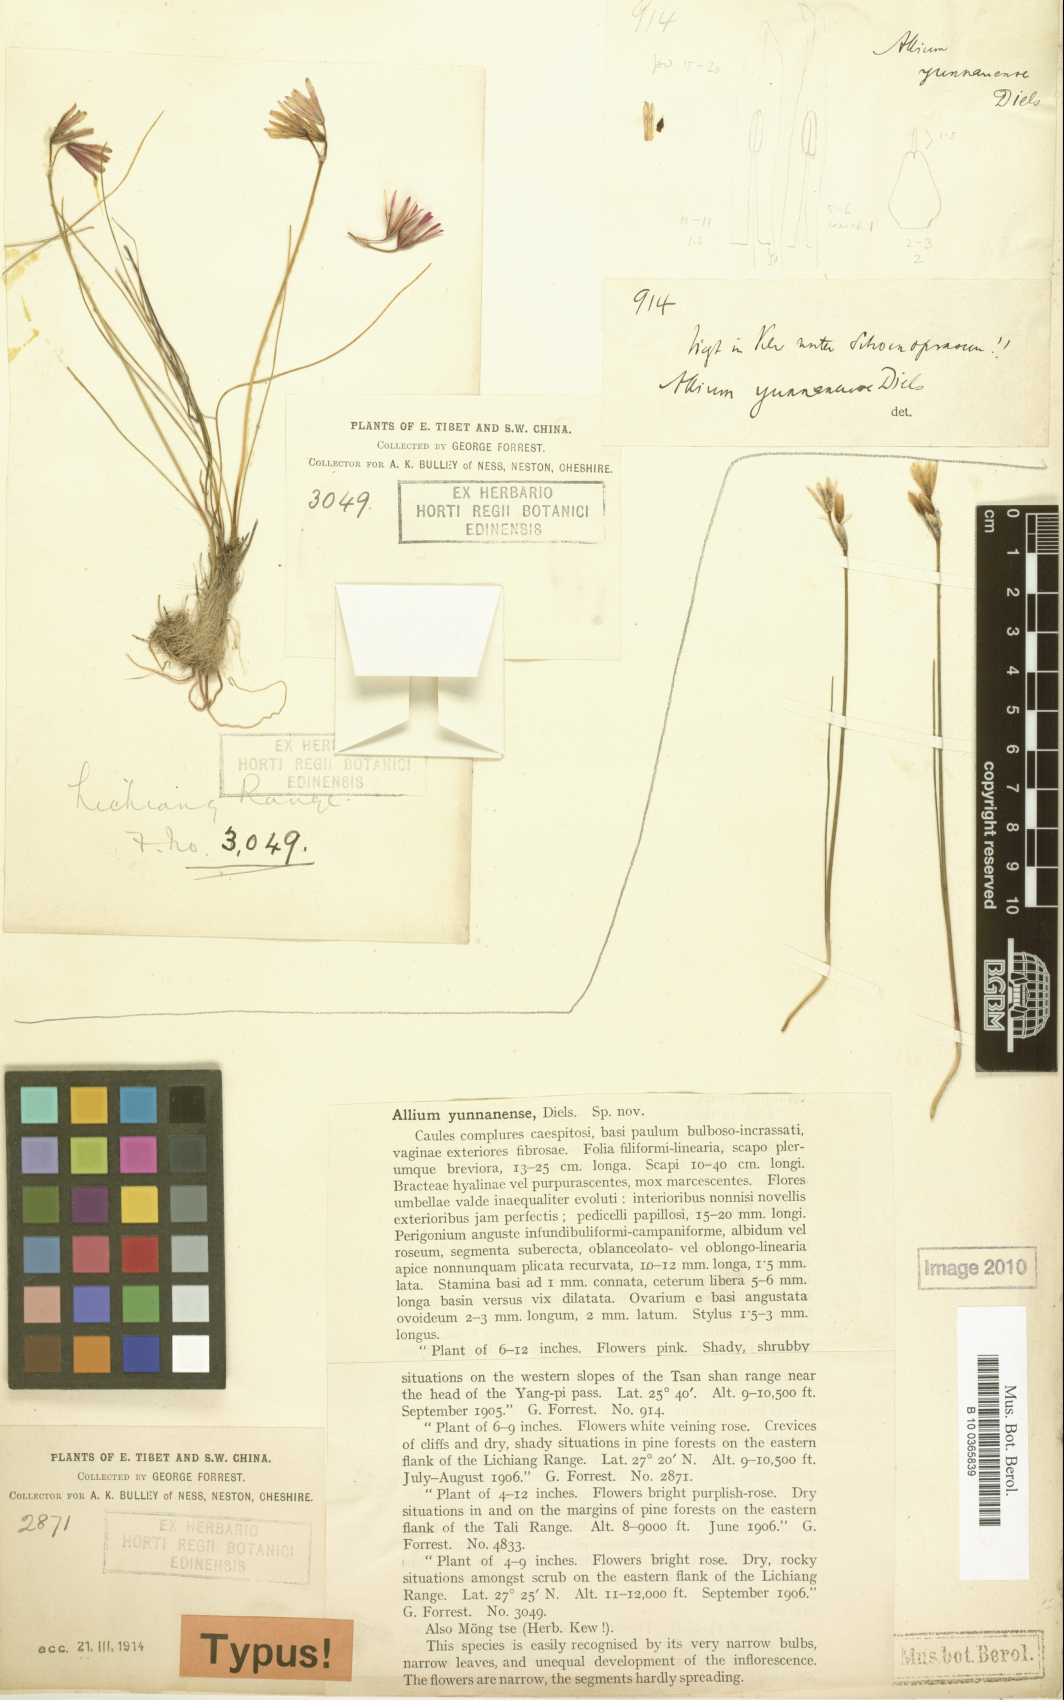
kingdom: Plantae
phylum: Tracheophyta
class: Liliopsida
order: Asparagales
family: Amaryllidaceae
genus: Allium
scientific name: Allium mairei
